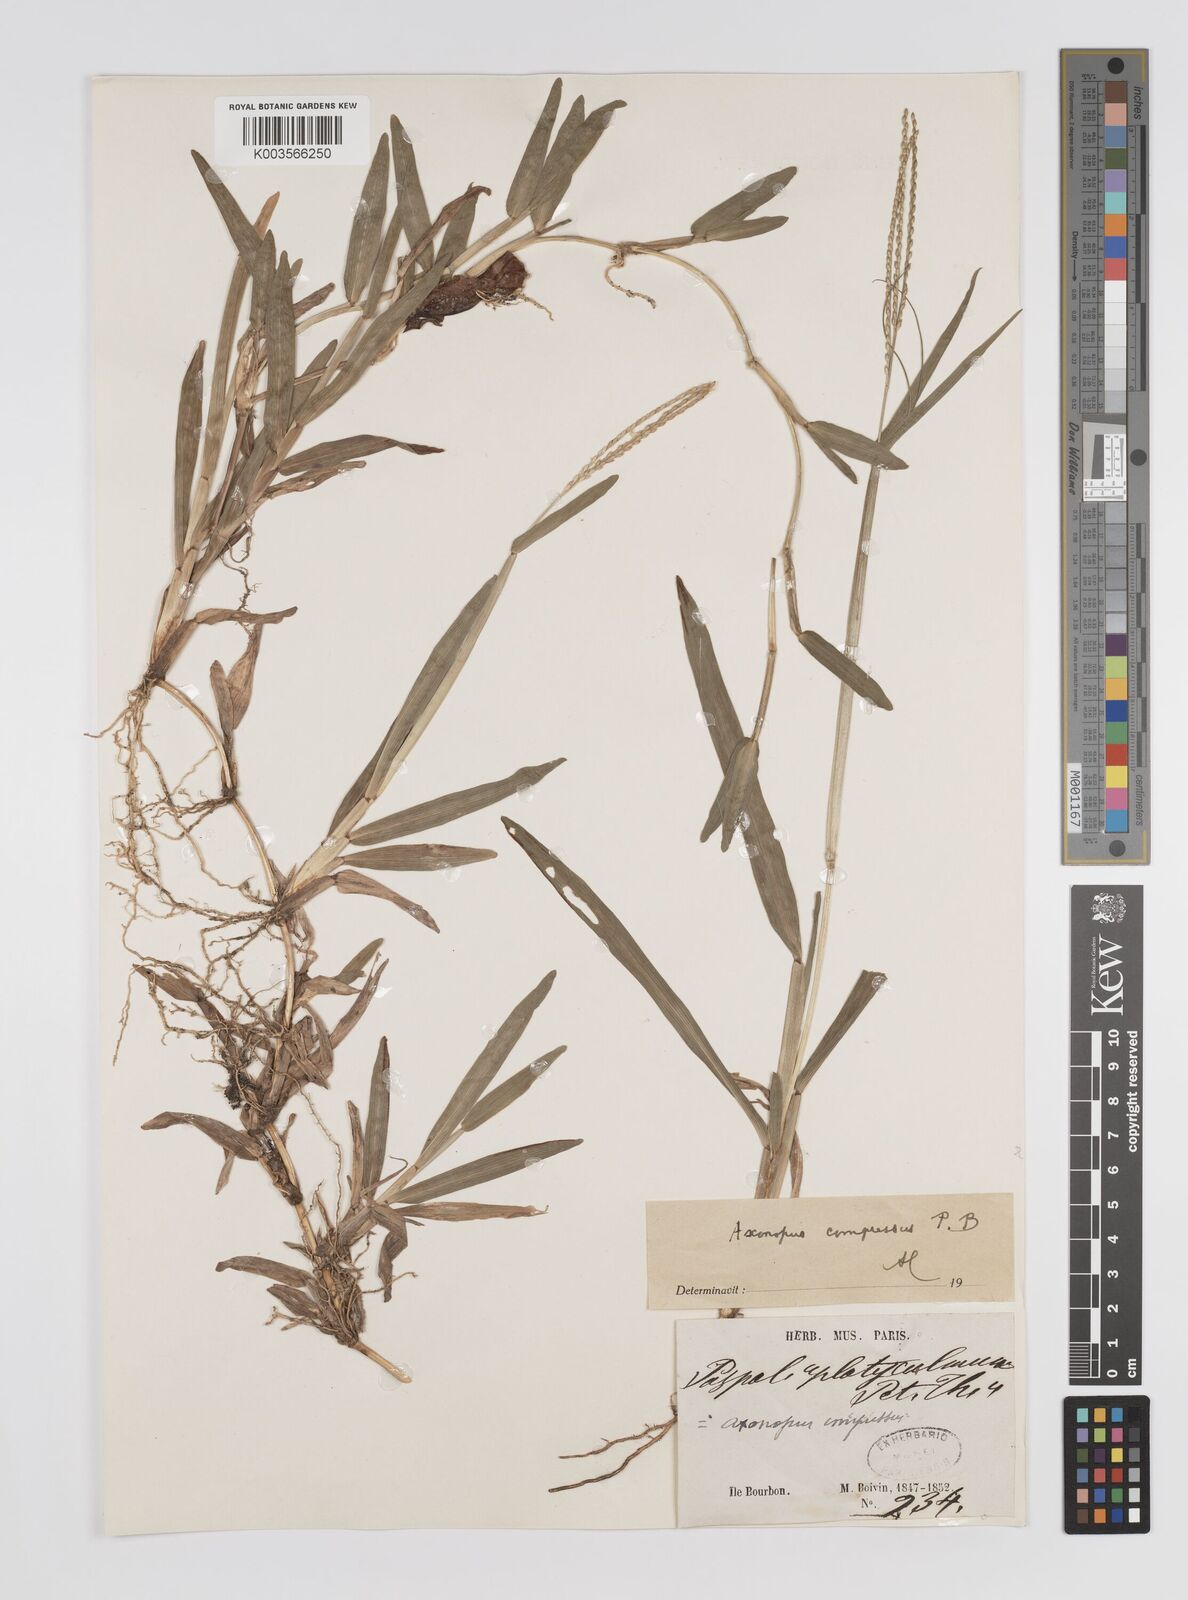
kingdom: Plantae
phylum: Tracheophyta
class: Liliopsida
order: Poales
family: Poaceae
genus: Axonopus
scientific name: Axonopus compressus
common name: American carpet grass
